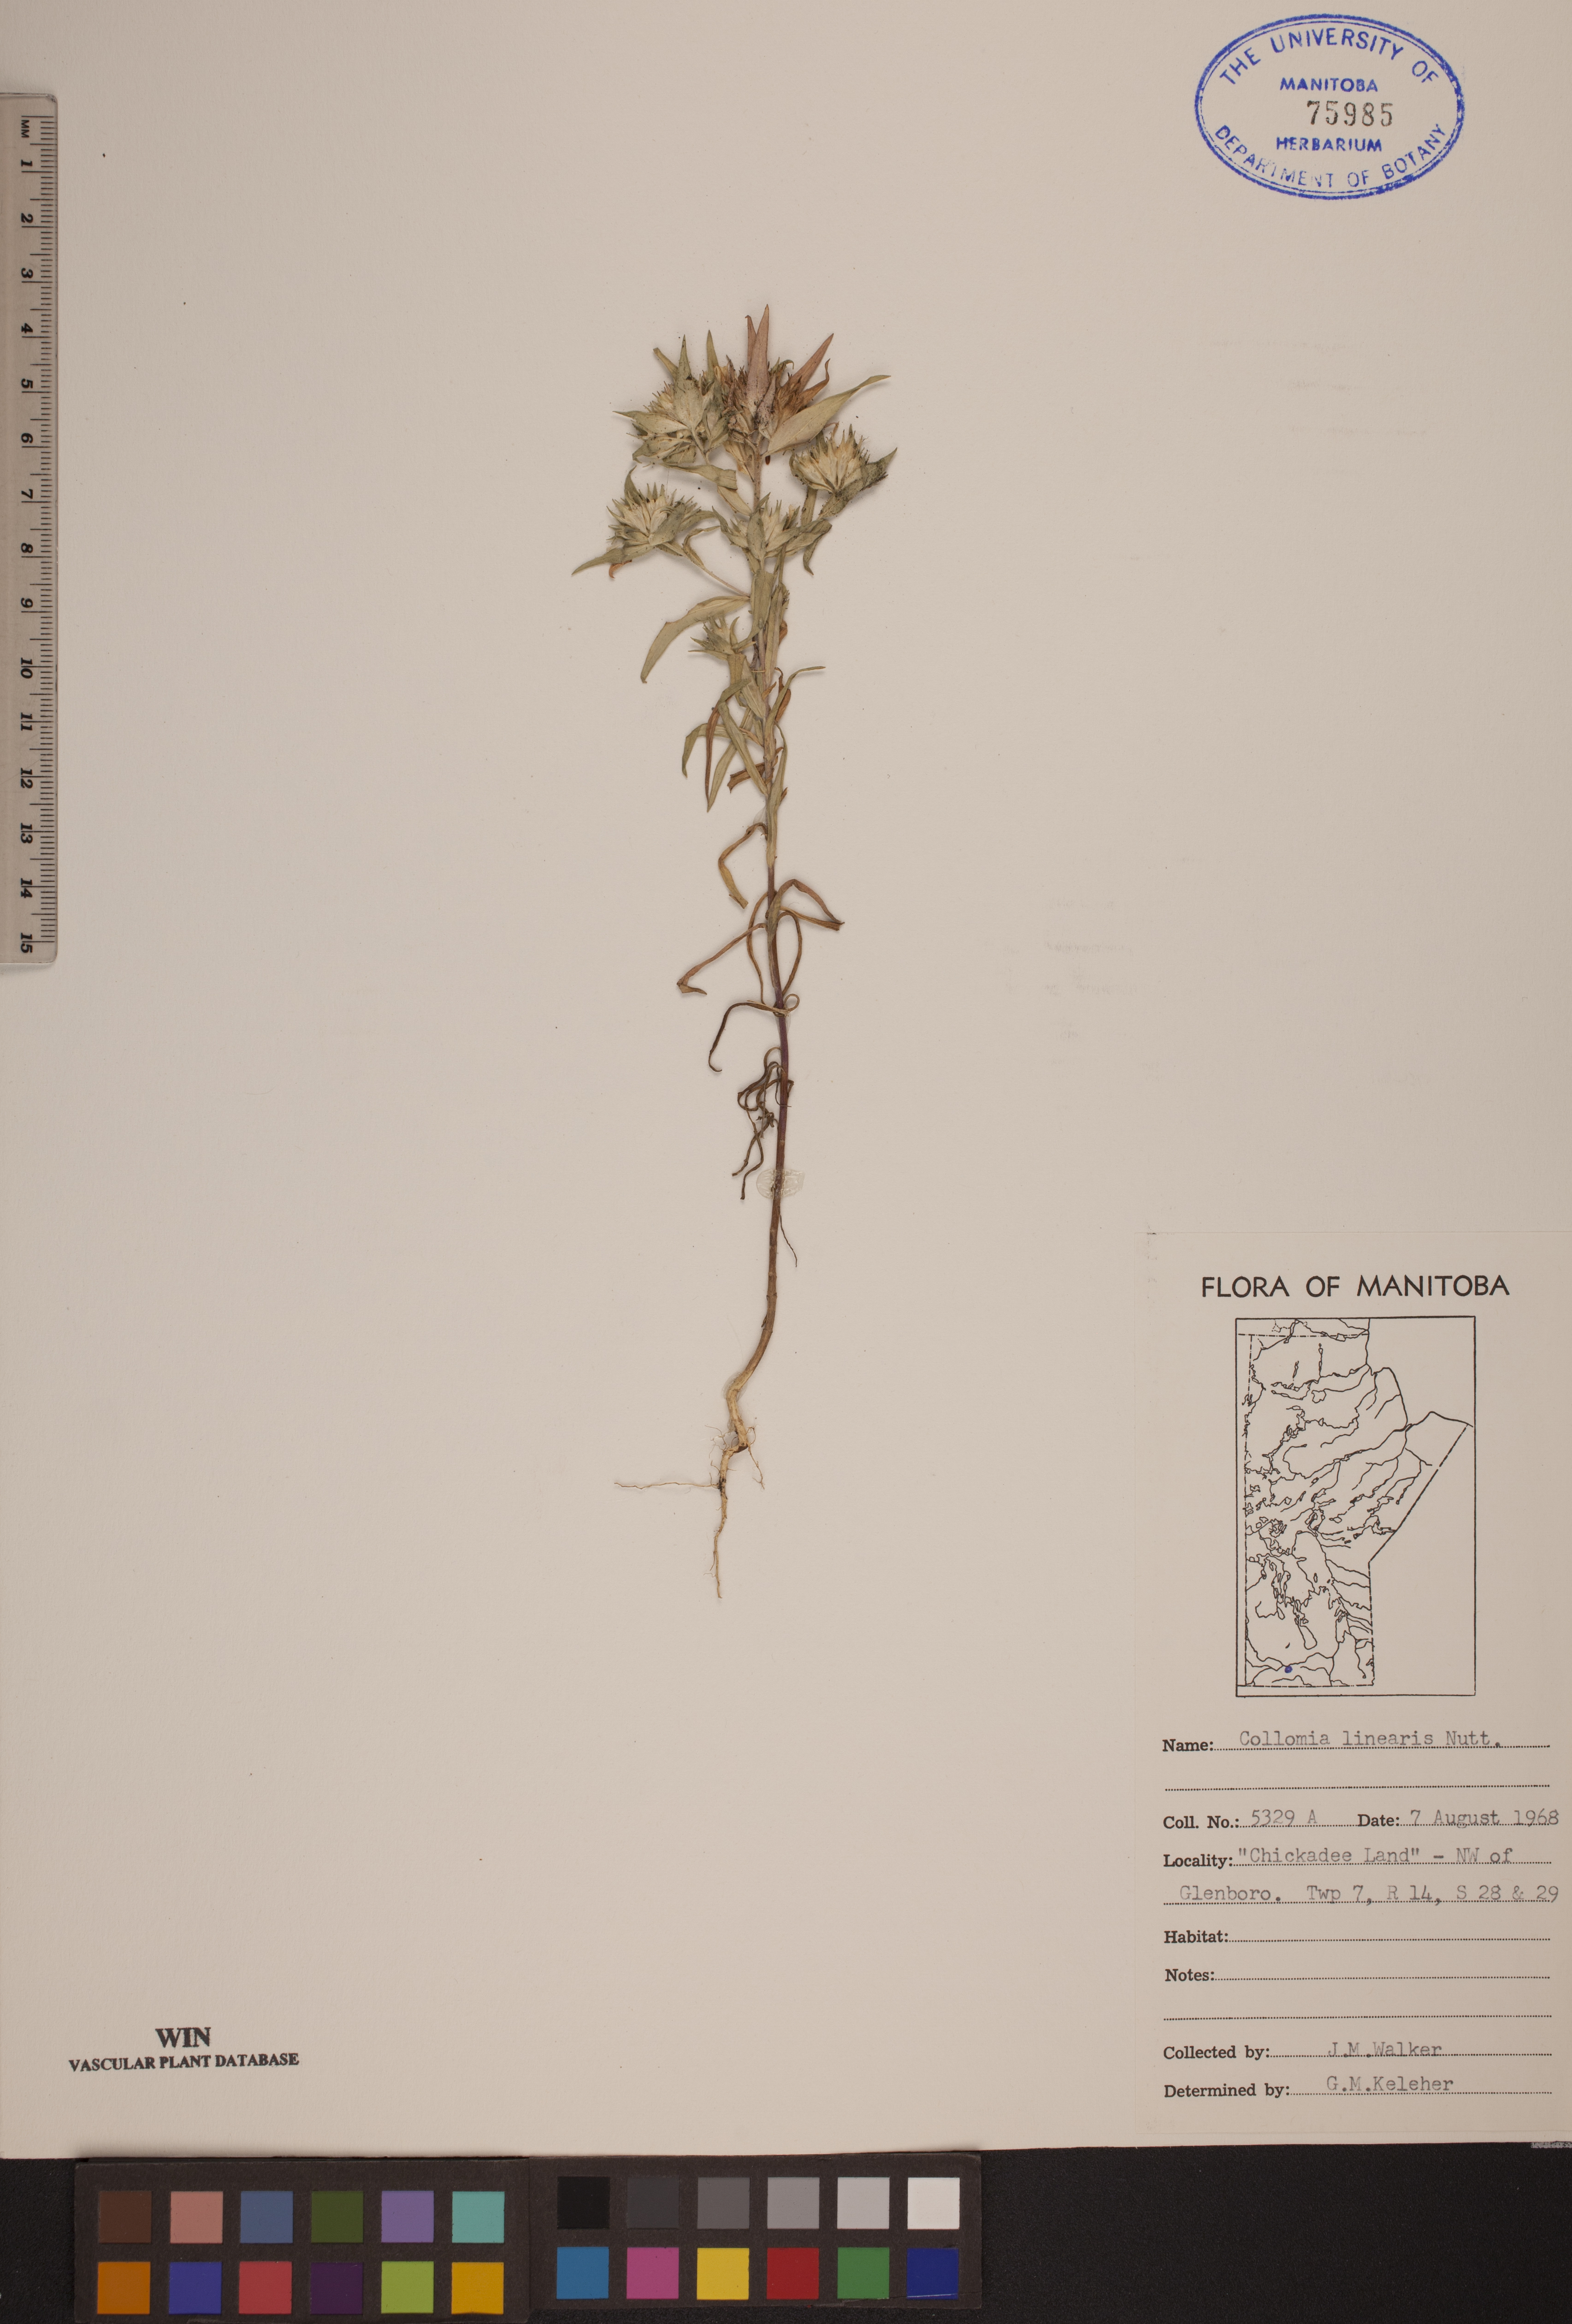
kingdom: Plantae
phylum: Tracheophyta
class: Magnoliopsida
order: Ericales
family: Polemoniaceae
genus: Collomia
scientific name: Collomia linearis
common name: Tiny trumpet
